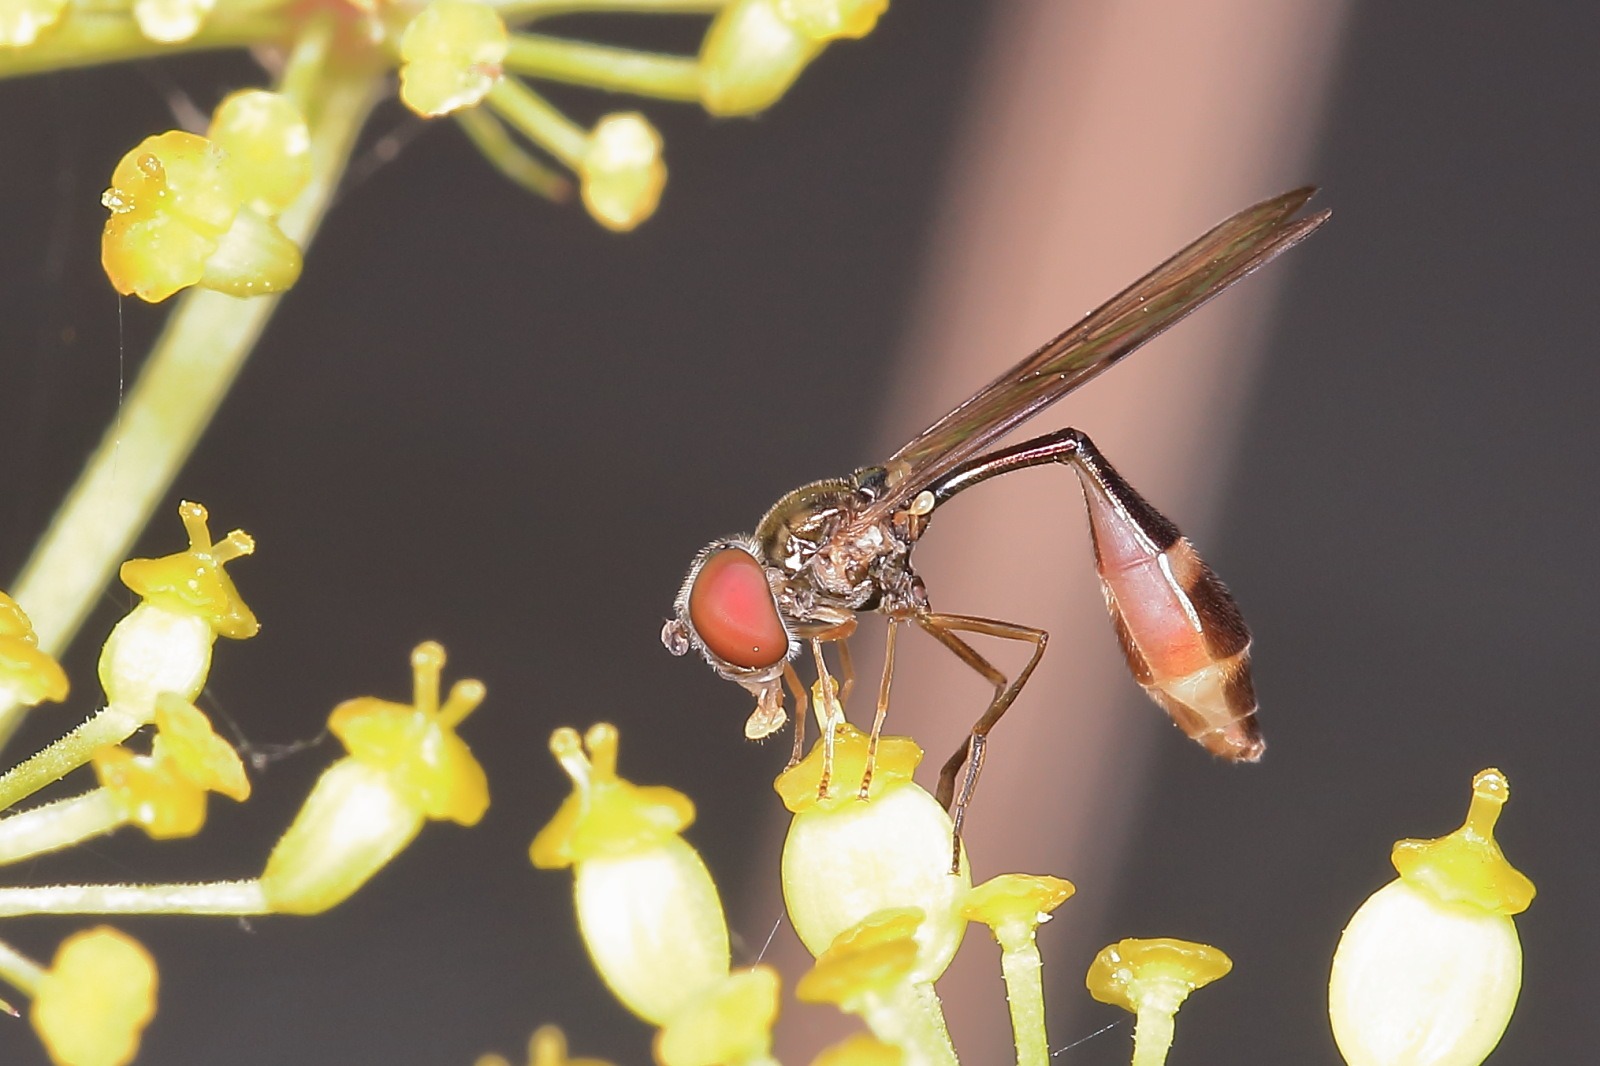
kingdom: Animalia
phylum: Arthropoda
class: Insecta
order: Diptera
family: Syrphidae
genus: Baccha
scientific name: Baccha elongata
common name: Mat spydsvirreflue
